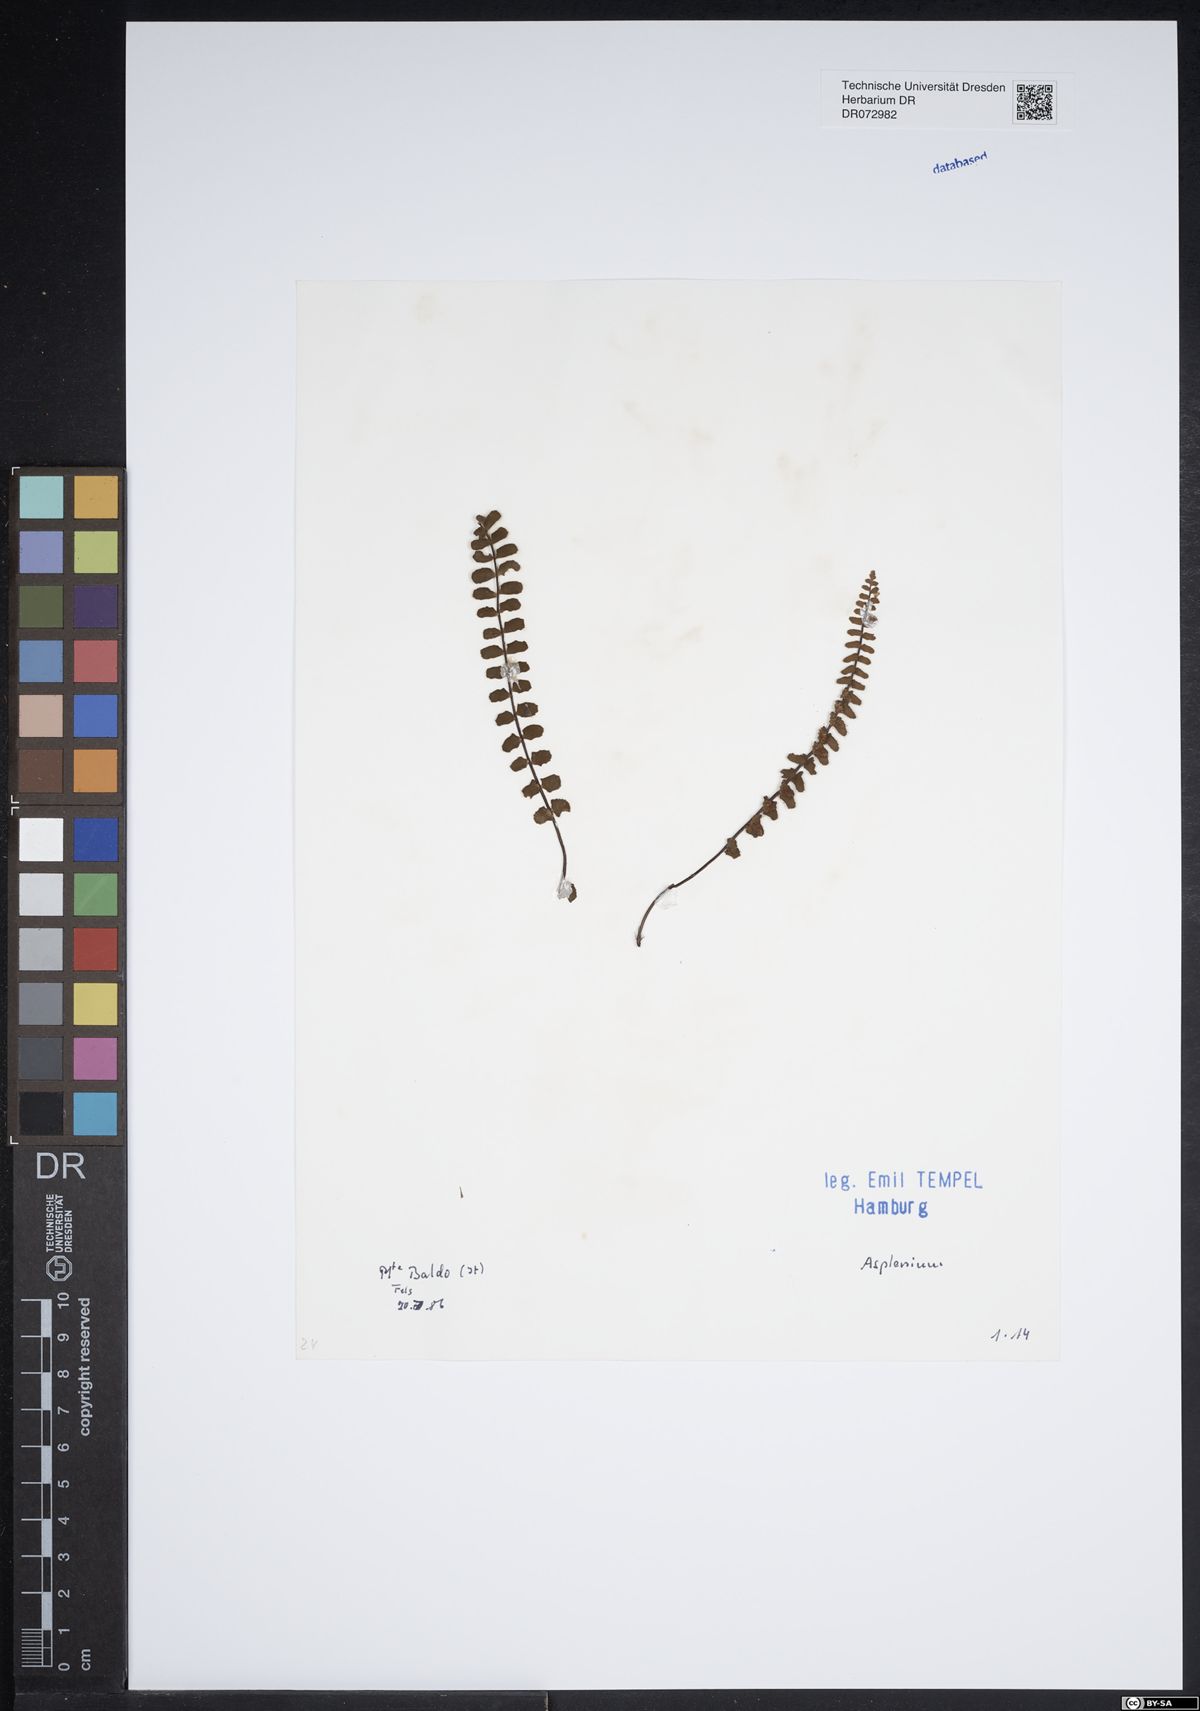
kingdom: Plantae
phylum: Tracheophyta
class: Polypodiopsida
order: Polypodiales
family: Aspleniaceae
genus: Asplenium
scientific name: Asplenium
